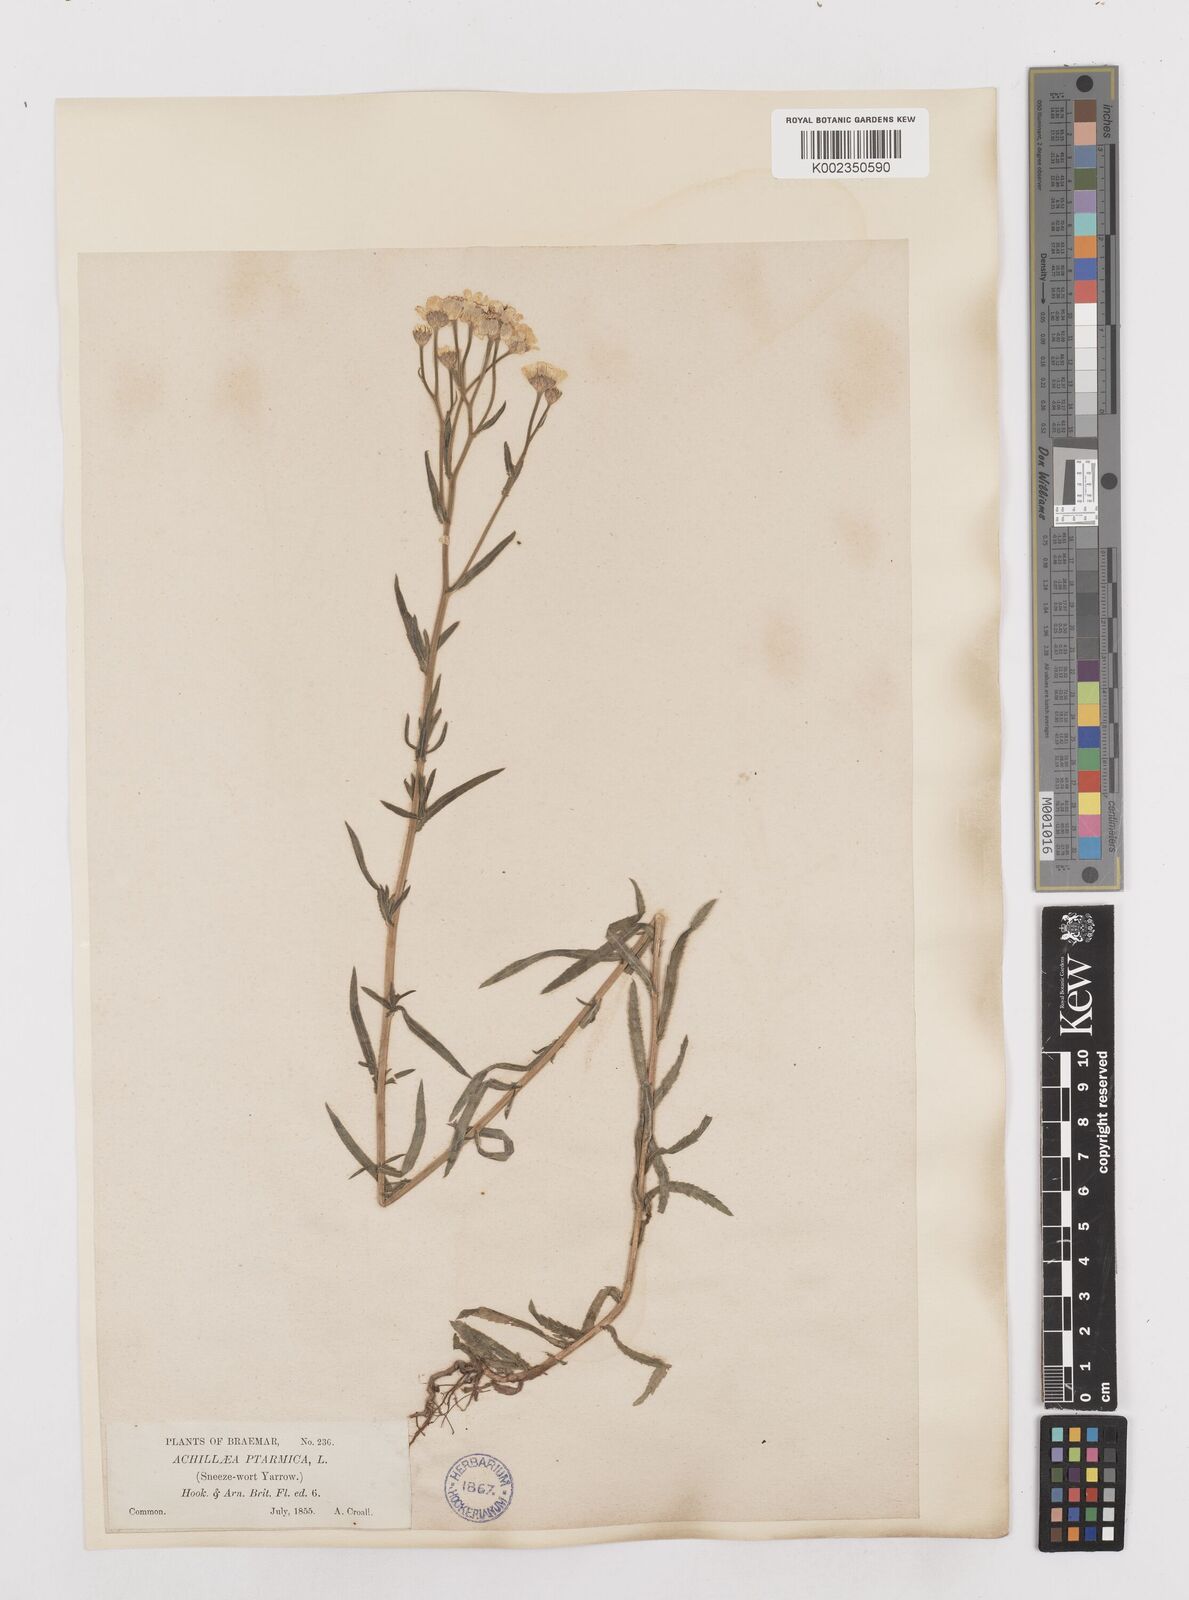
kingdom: Plantae
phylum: Tracheophyta
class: Magnoliopsida
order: Asterales
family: Asteraceae
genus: Achillea
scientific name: Achillea
